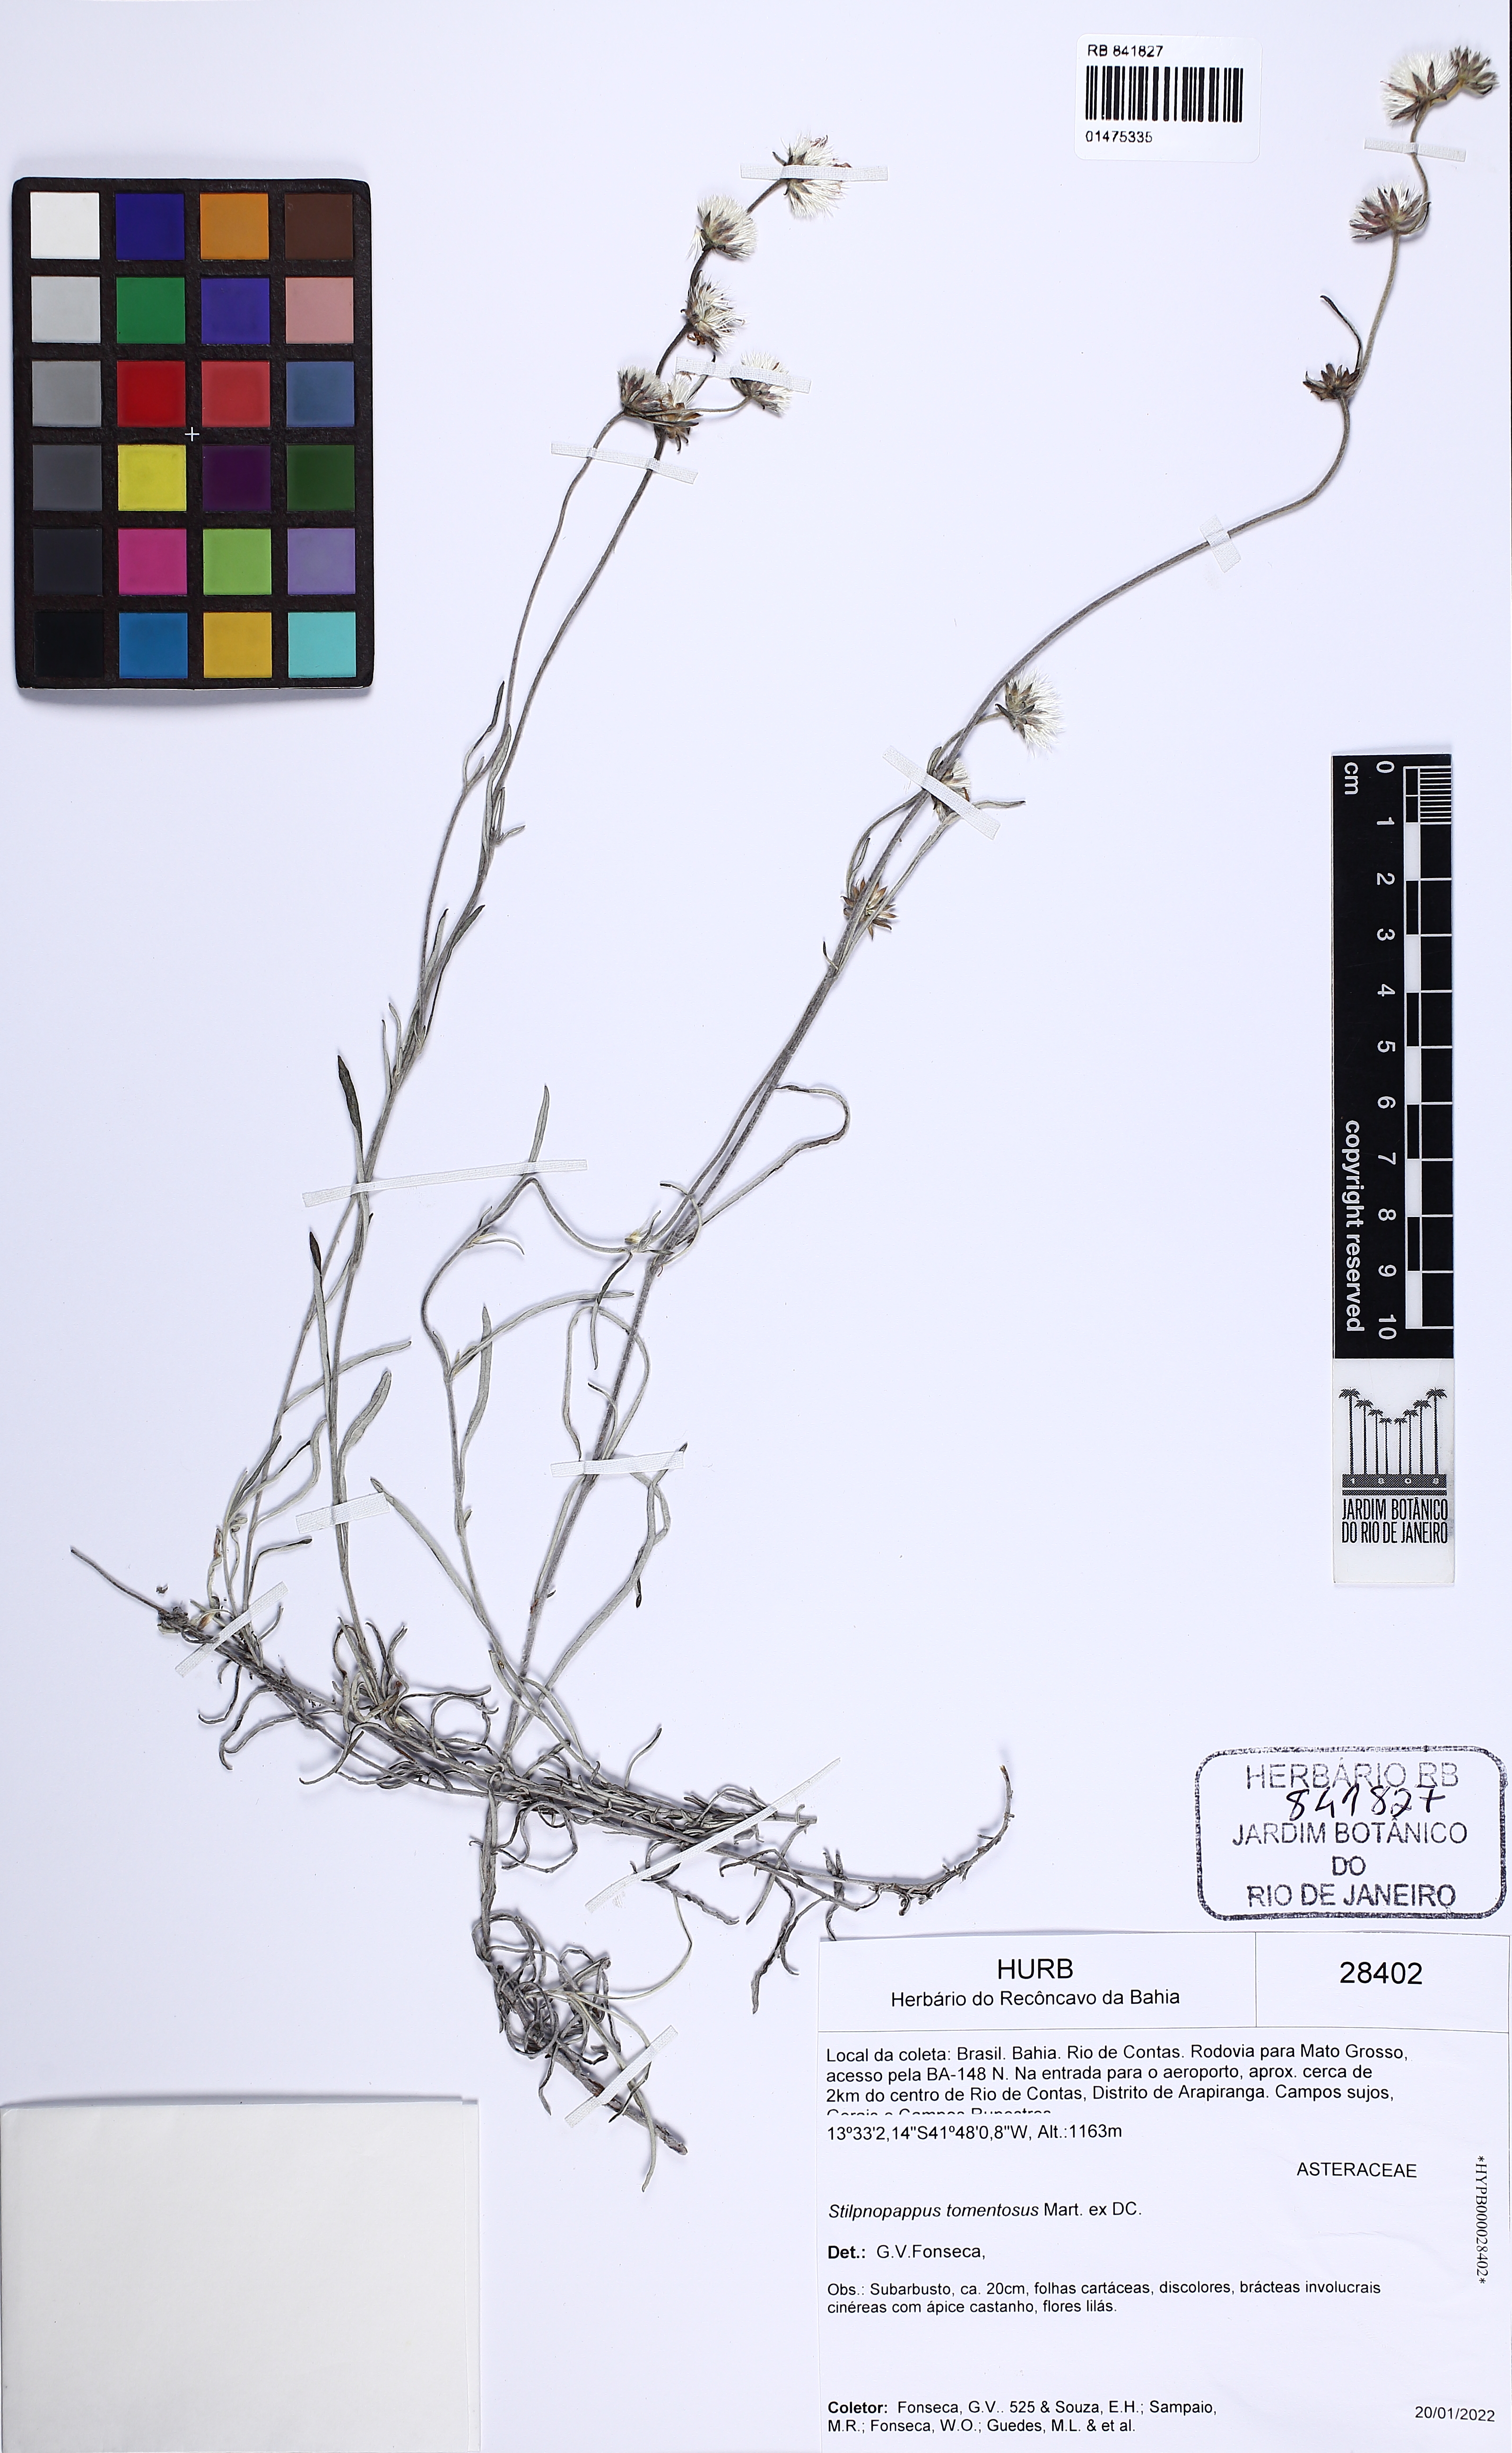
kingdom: Plantae
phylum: Tracheophyta
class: Magnoliopsida
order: Asterales
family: Asteraceae
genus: Stilpnopappus
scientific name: Stilpnopappus tomentosus
